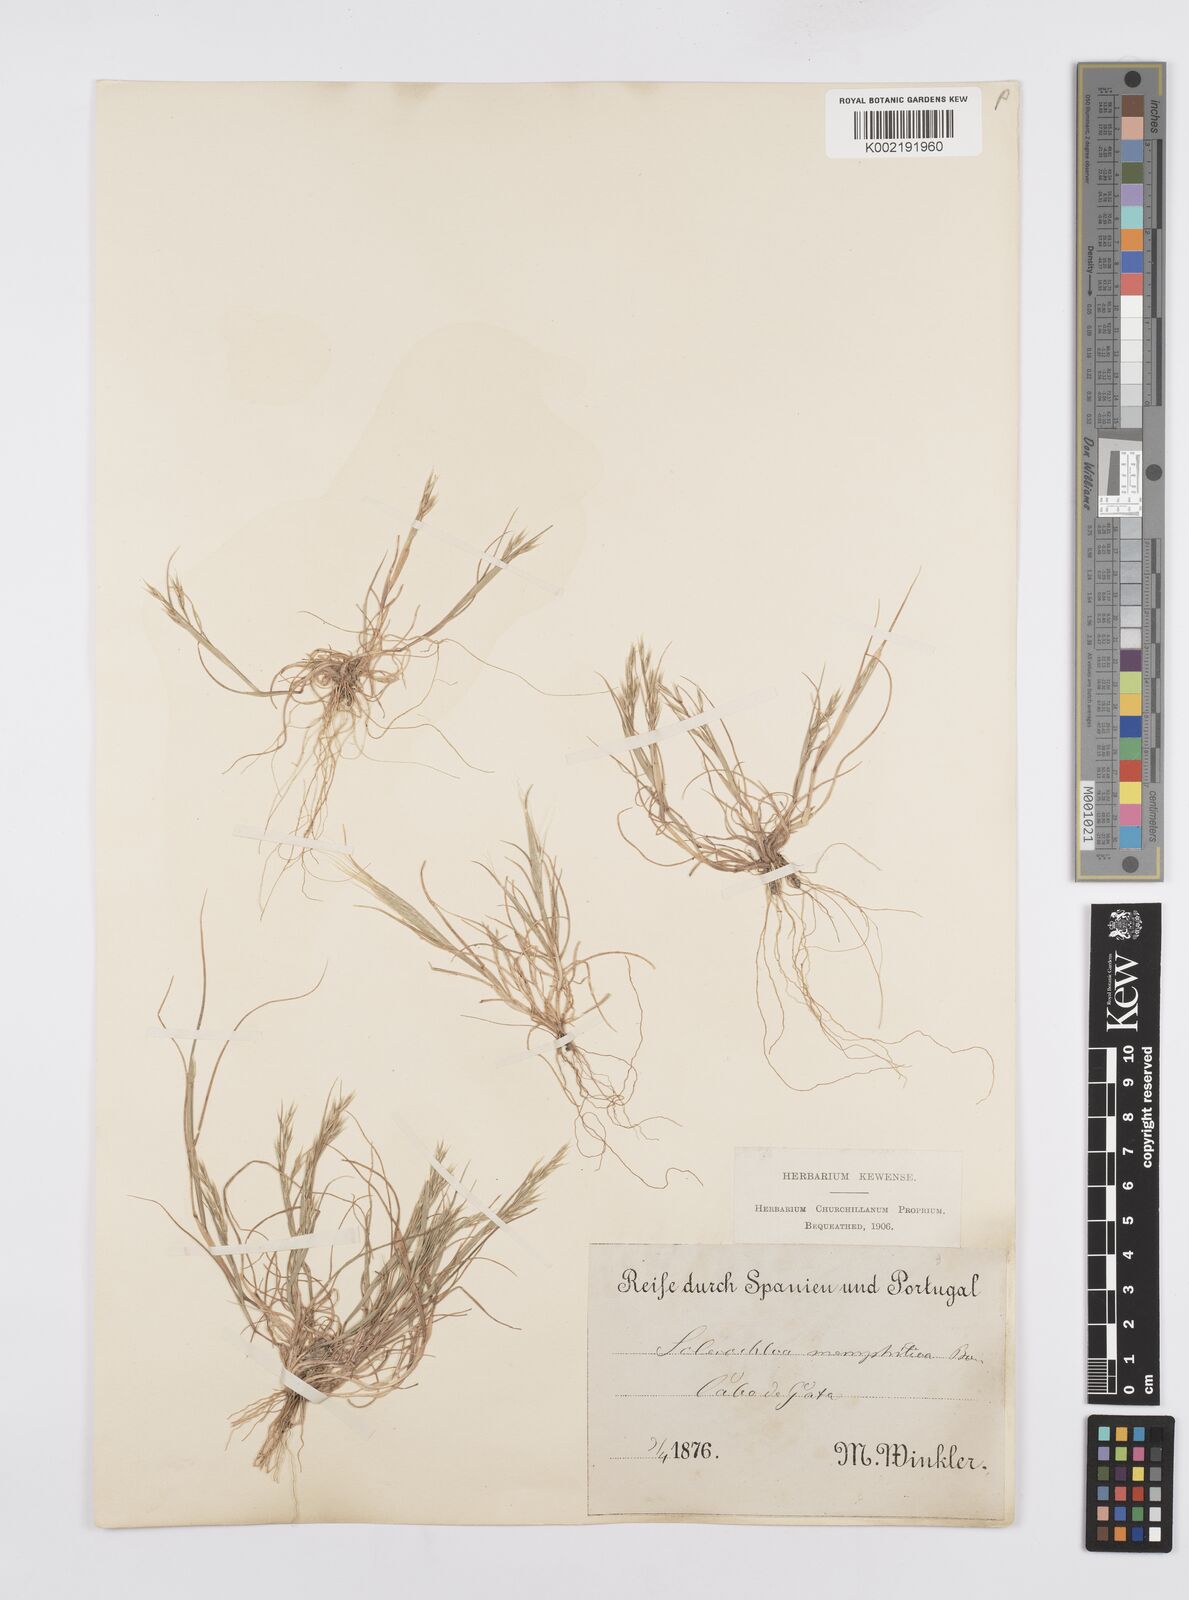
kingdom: Plantae
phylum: Tracheophyta
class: Liliopsida
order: Poales
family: Poaceae
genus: Cutandia
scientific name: Cutandia memphitica
